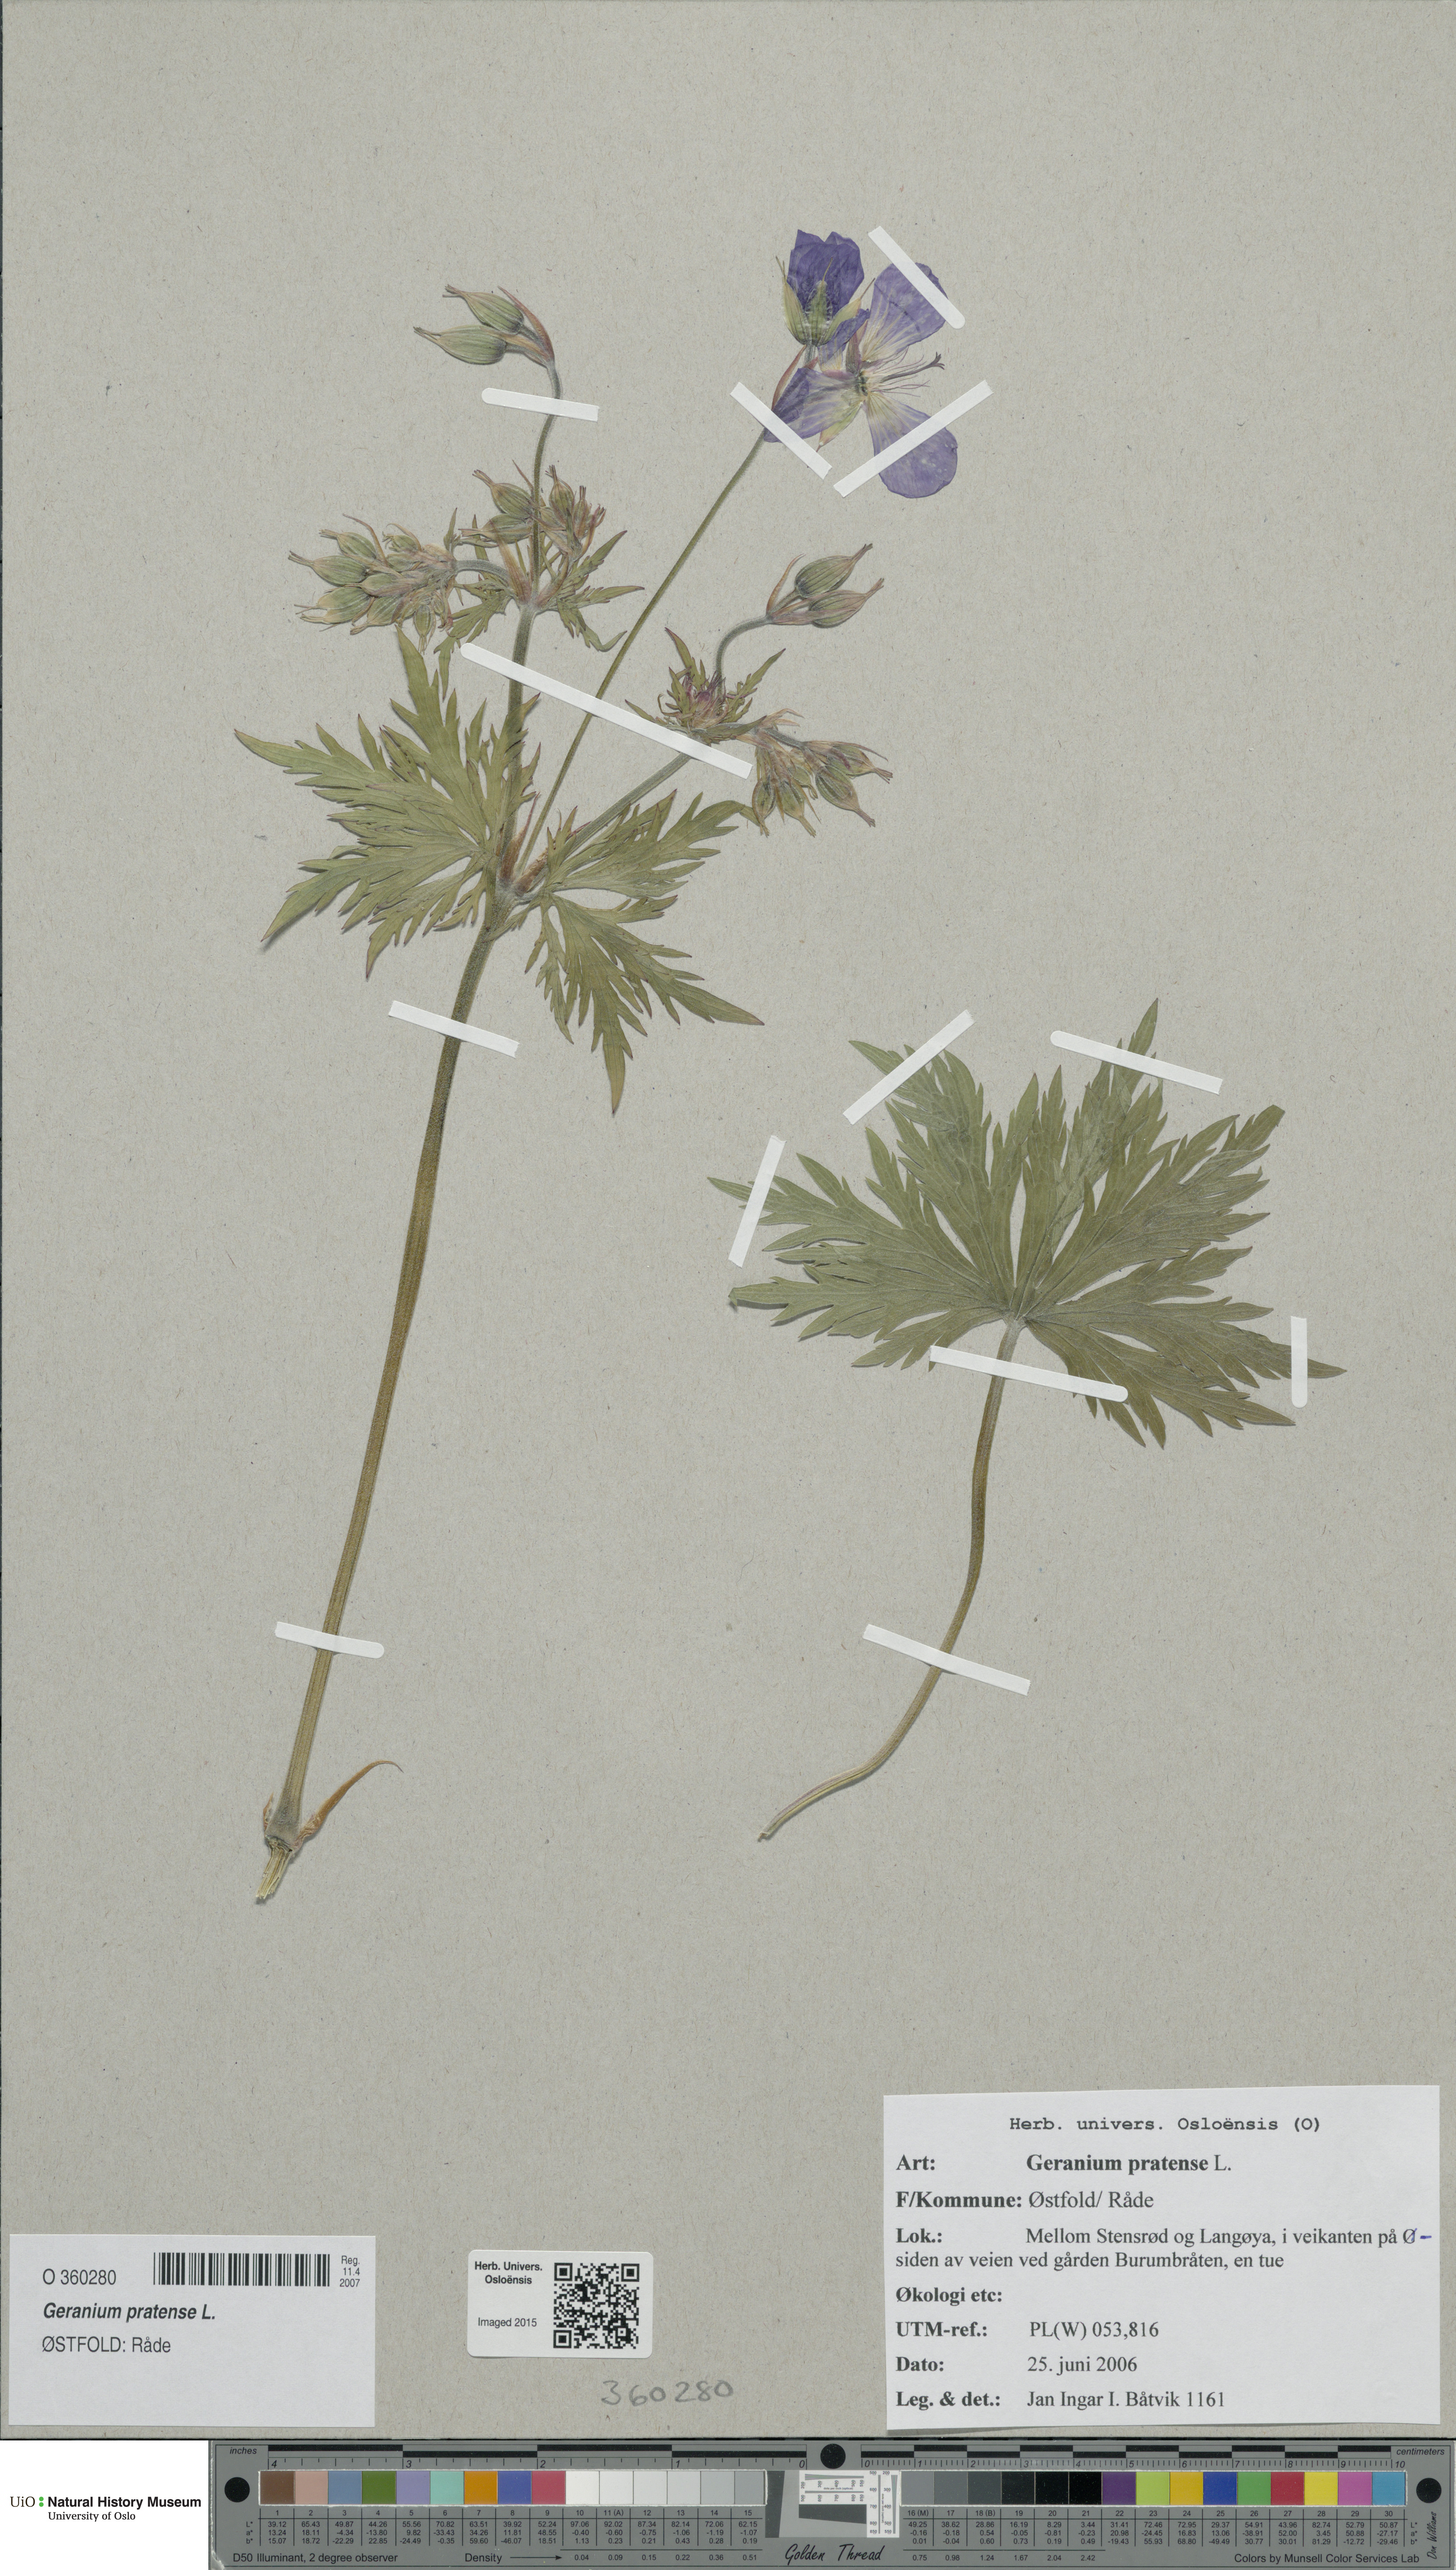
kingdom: Plantae
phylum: Tracheophyta
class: Magnoliopsida
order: Geraniales
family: Geraniaceae
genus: Geranium
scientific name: Geranium pratense
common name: Meadow crane's-bill
